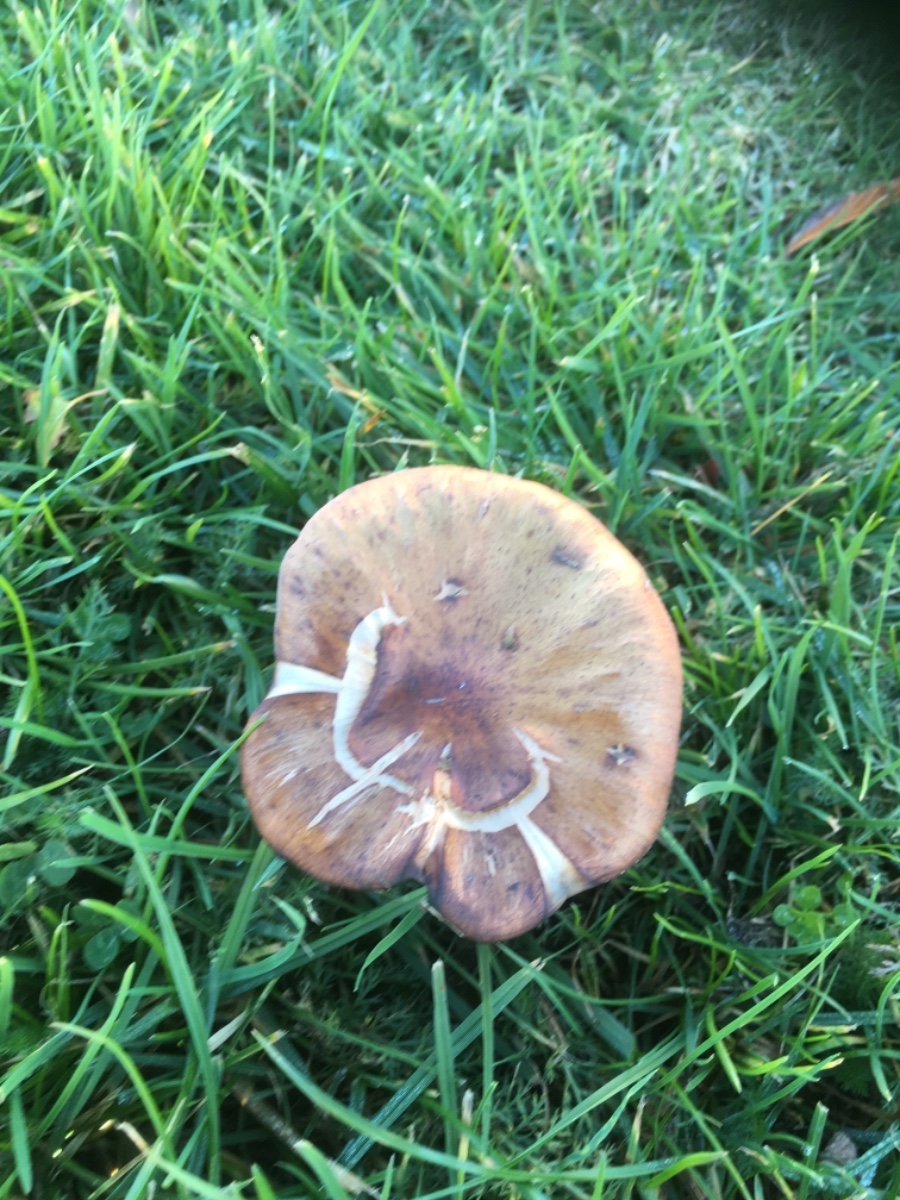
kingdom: Fungi
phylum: Basidiomycota
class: Agaricomycetes
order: Agaricales
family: Physalacriaceae
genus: Armillaria
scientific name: Armillaria
